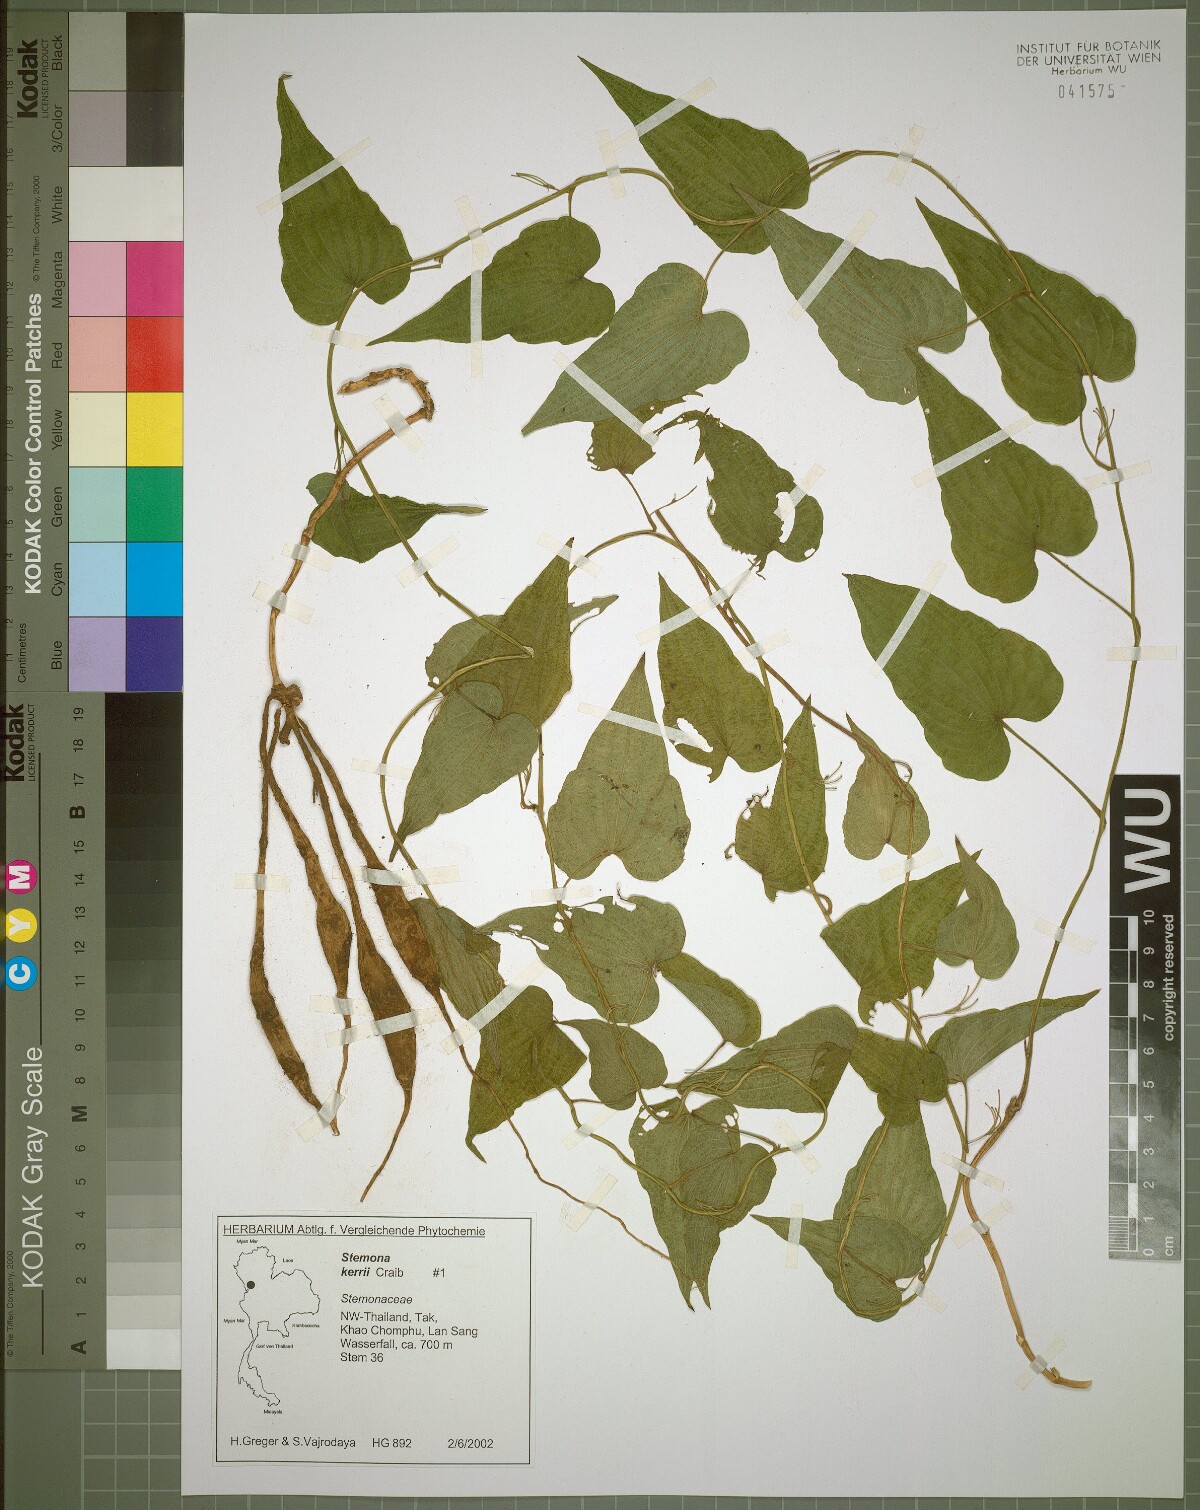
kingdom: Plantae
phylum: Tracheophyta
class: Liliopsida
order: Pandanales
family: Stemonaceae
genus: Stemona
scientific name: Stemona kerrii
